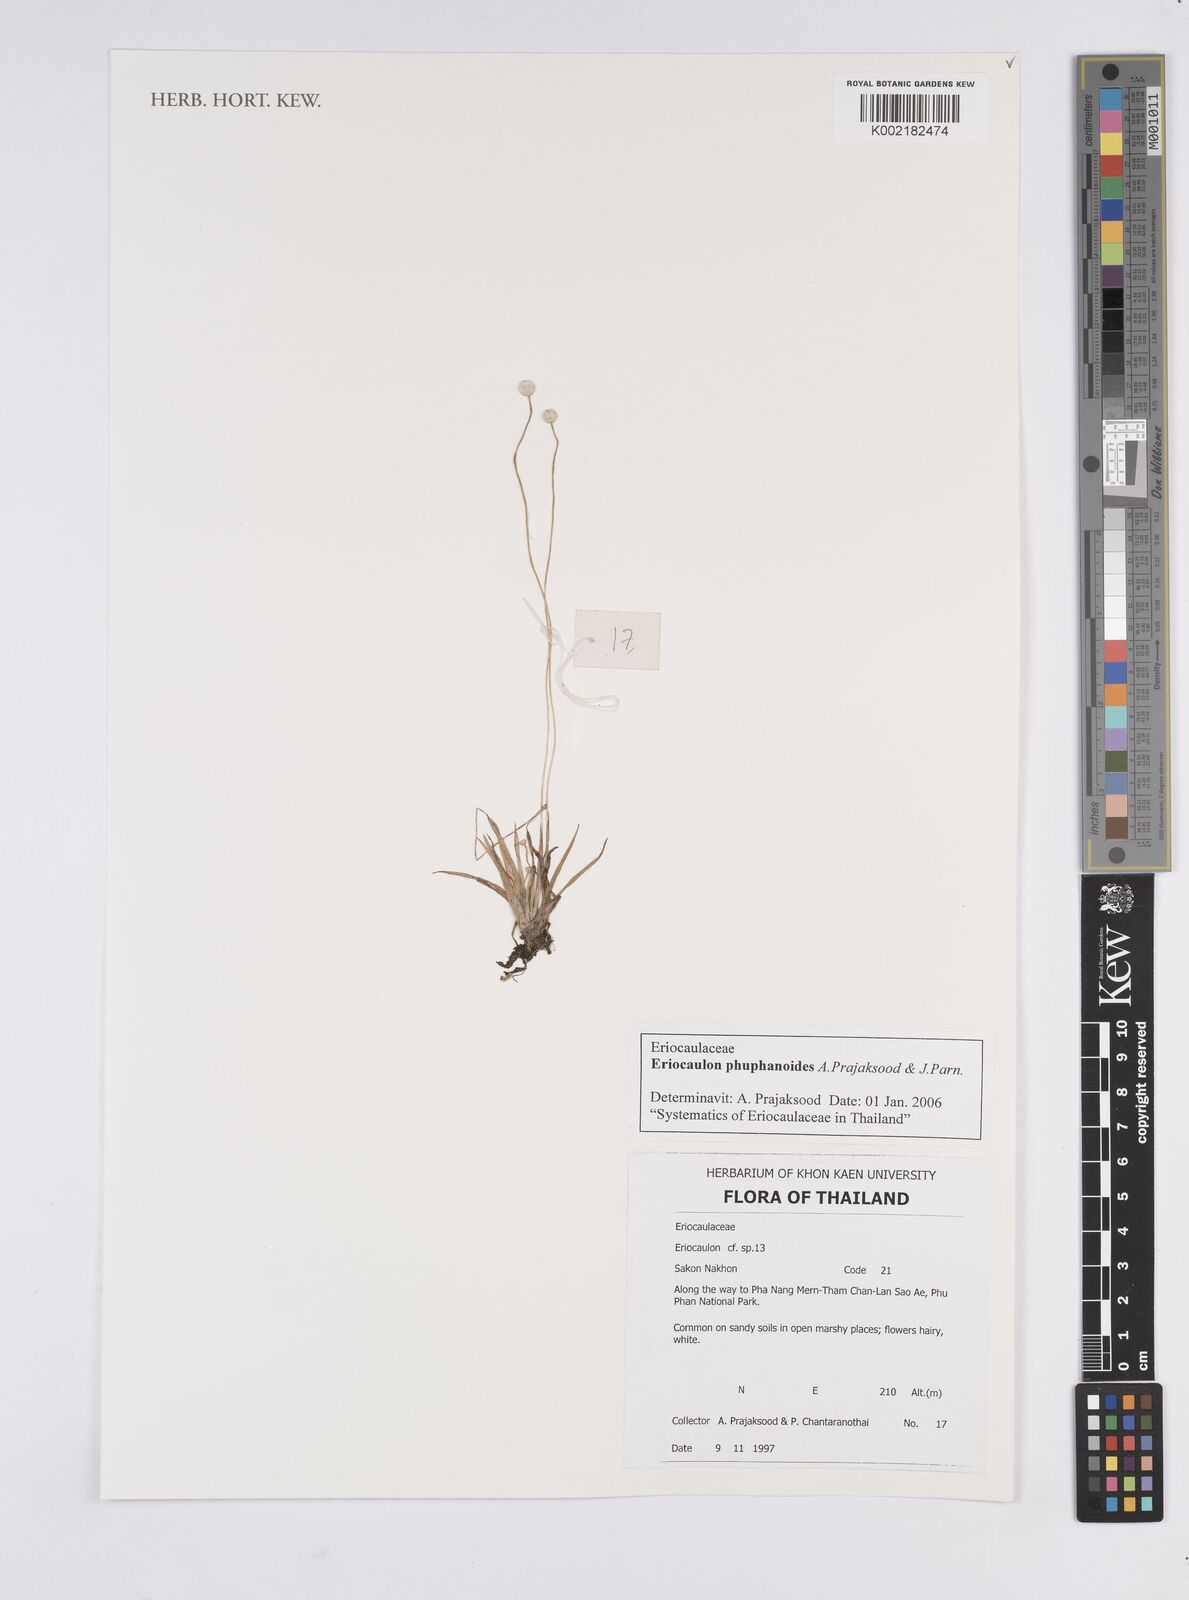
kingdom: Plantae
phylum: Tracheophyta
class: Liliopsida
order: Poales
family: Eriocaulaceae
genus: Eriocaulon
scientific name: Eriocaulon phuphanoides
